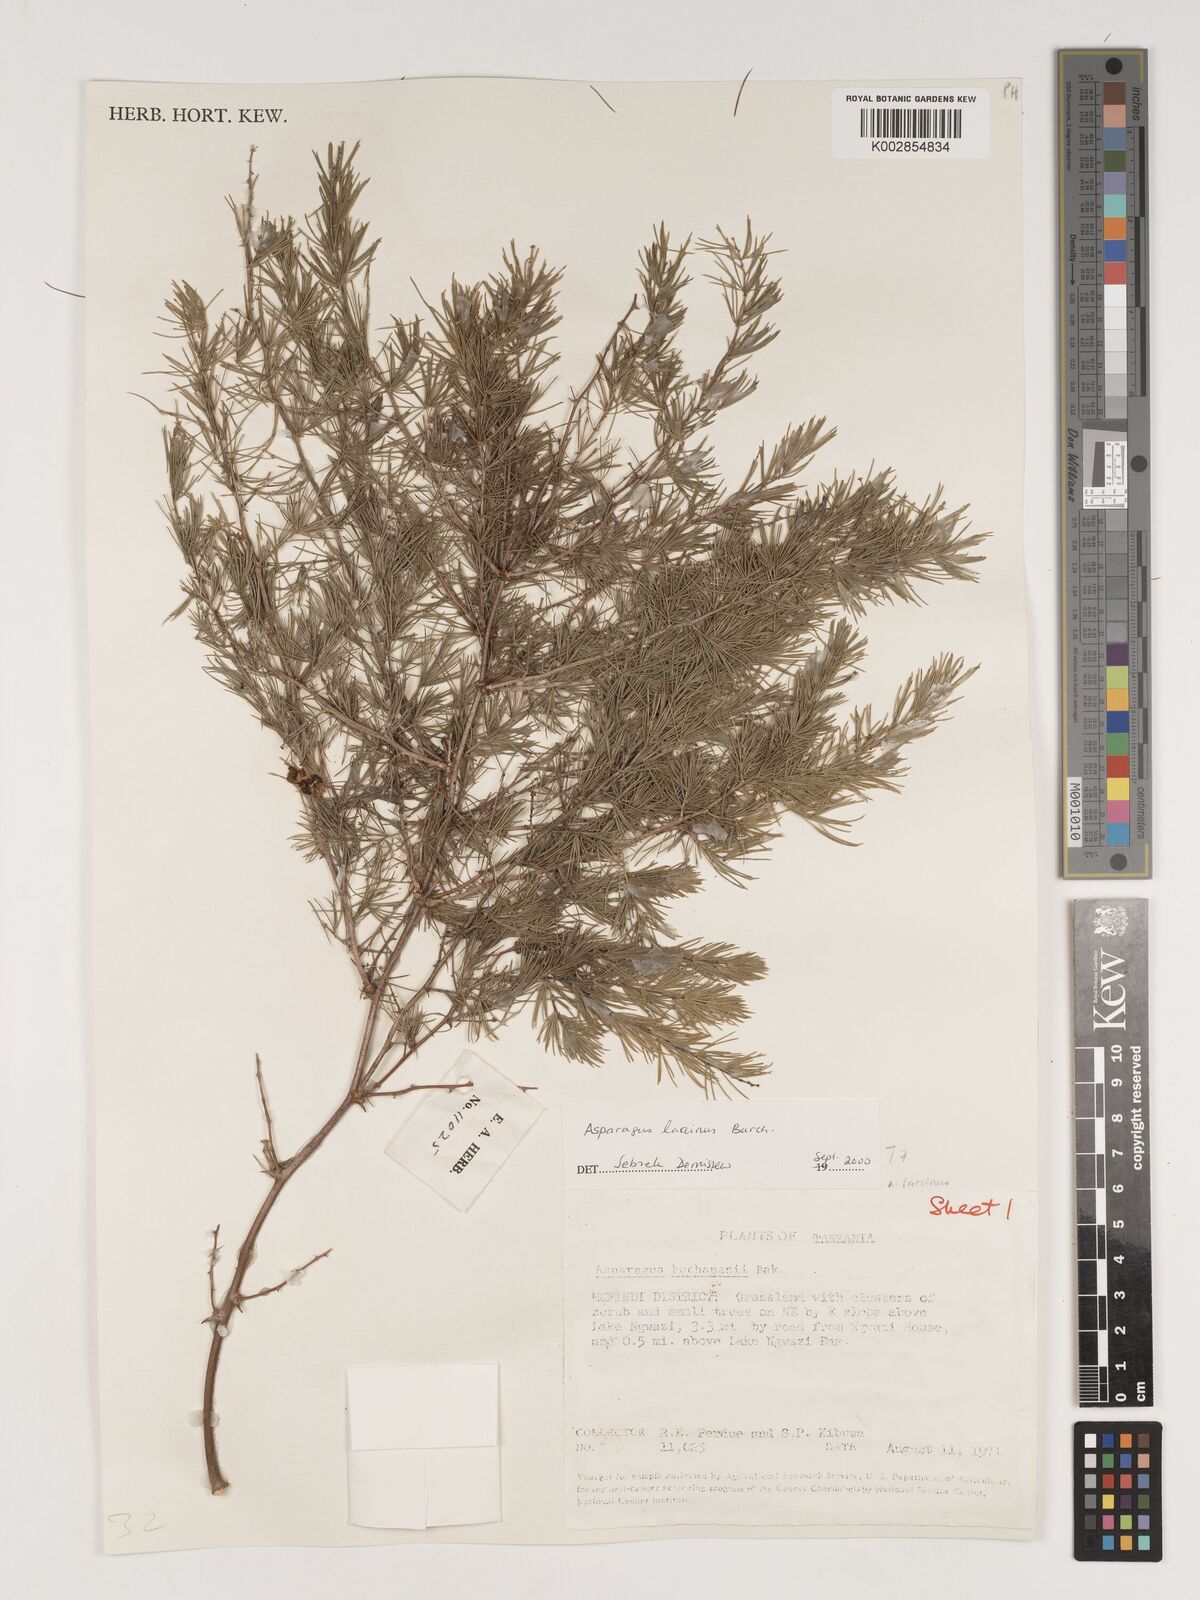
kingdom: Plantae
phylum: Tracheophyta
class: Liliopsida
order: Asparagales
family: Asparagaceae
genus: Asparagus
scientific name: Asparagus laricinus
